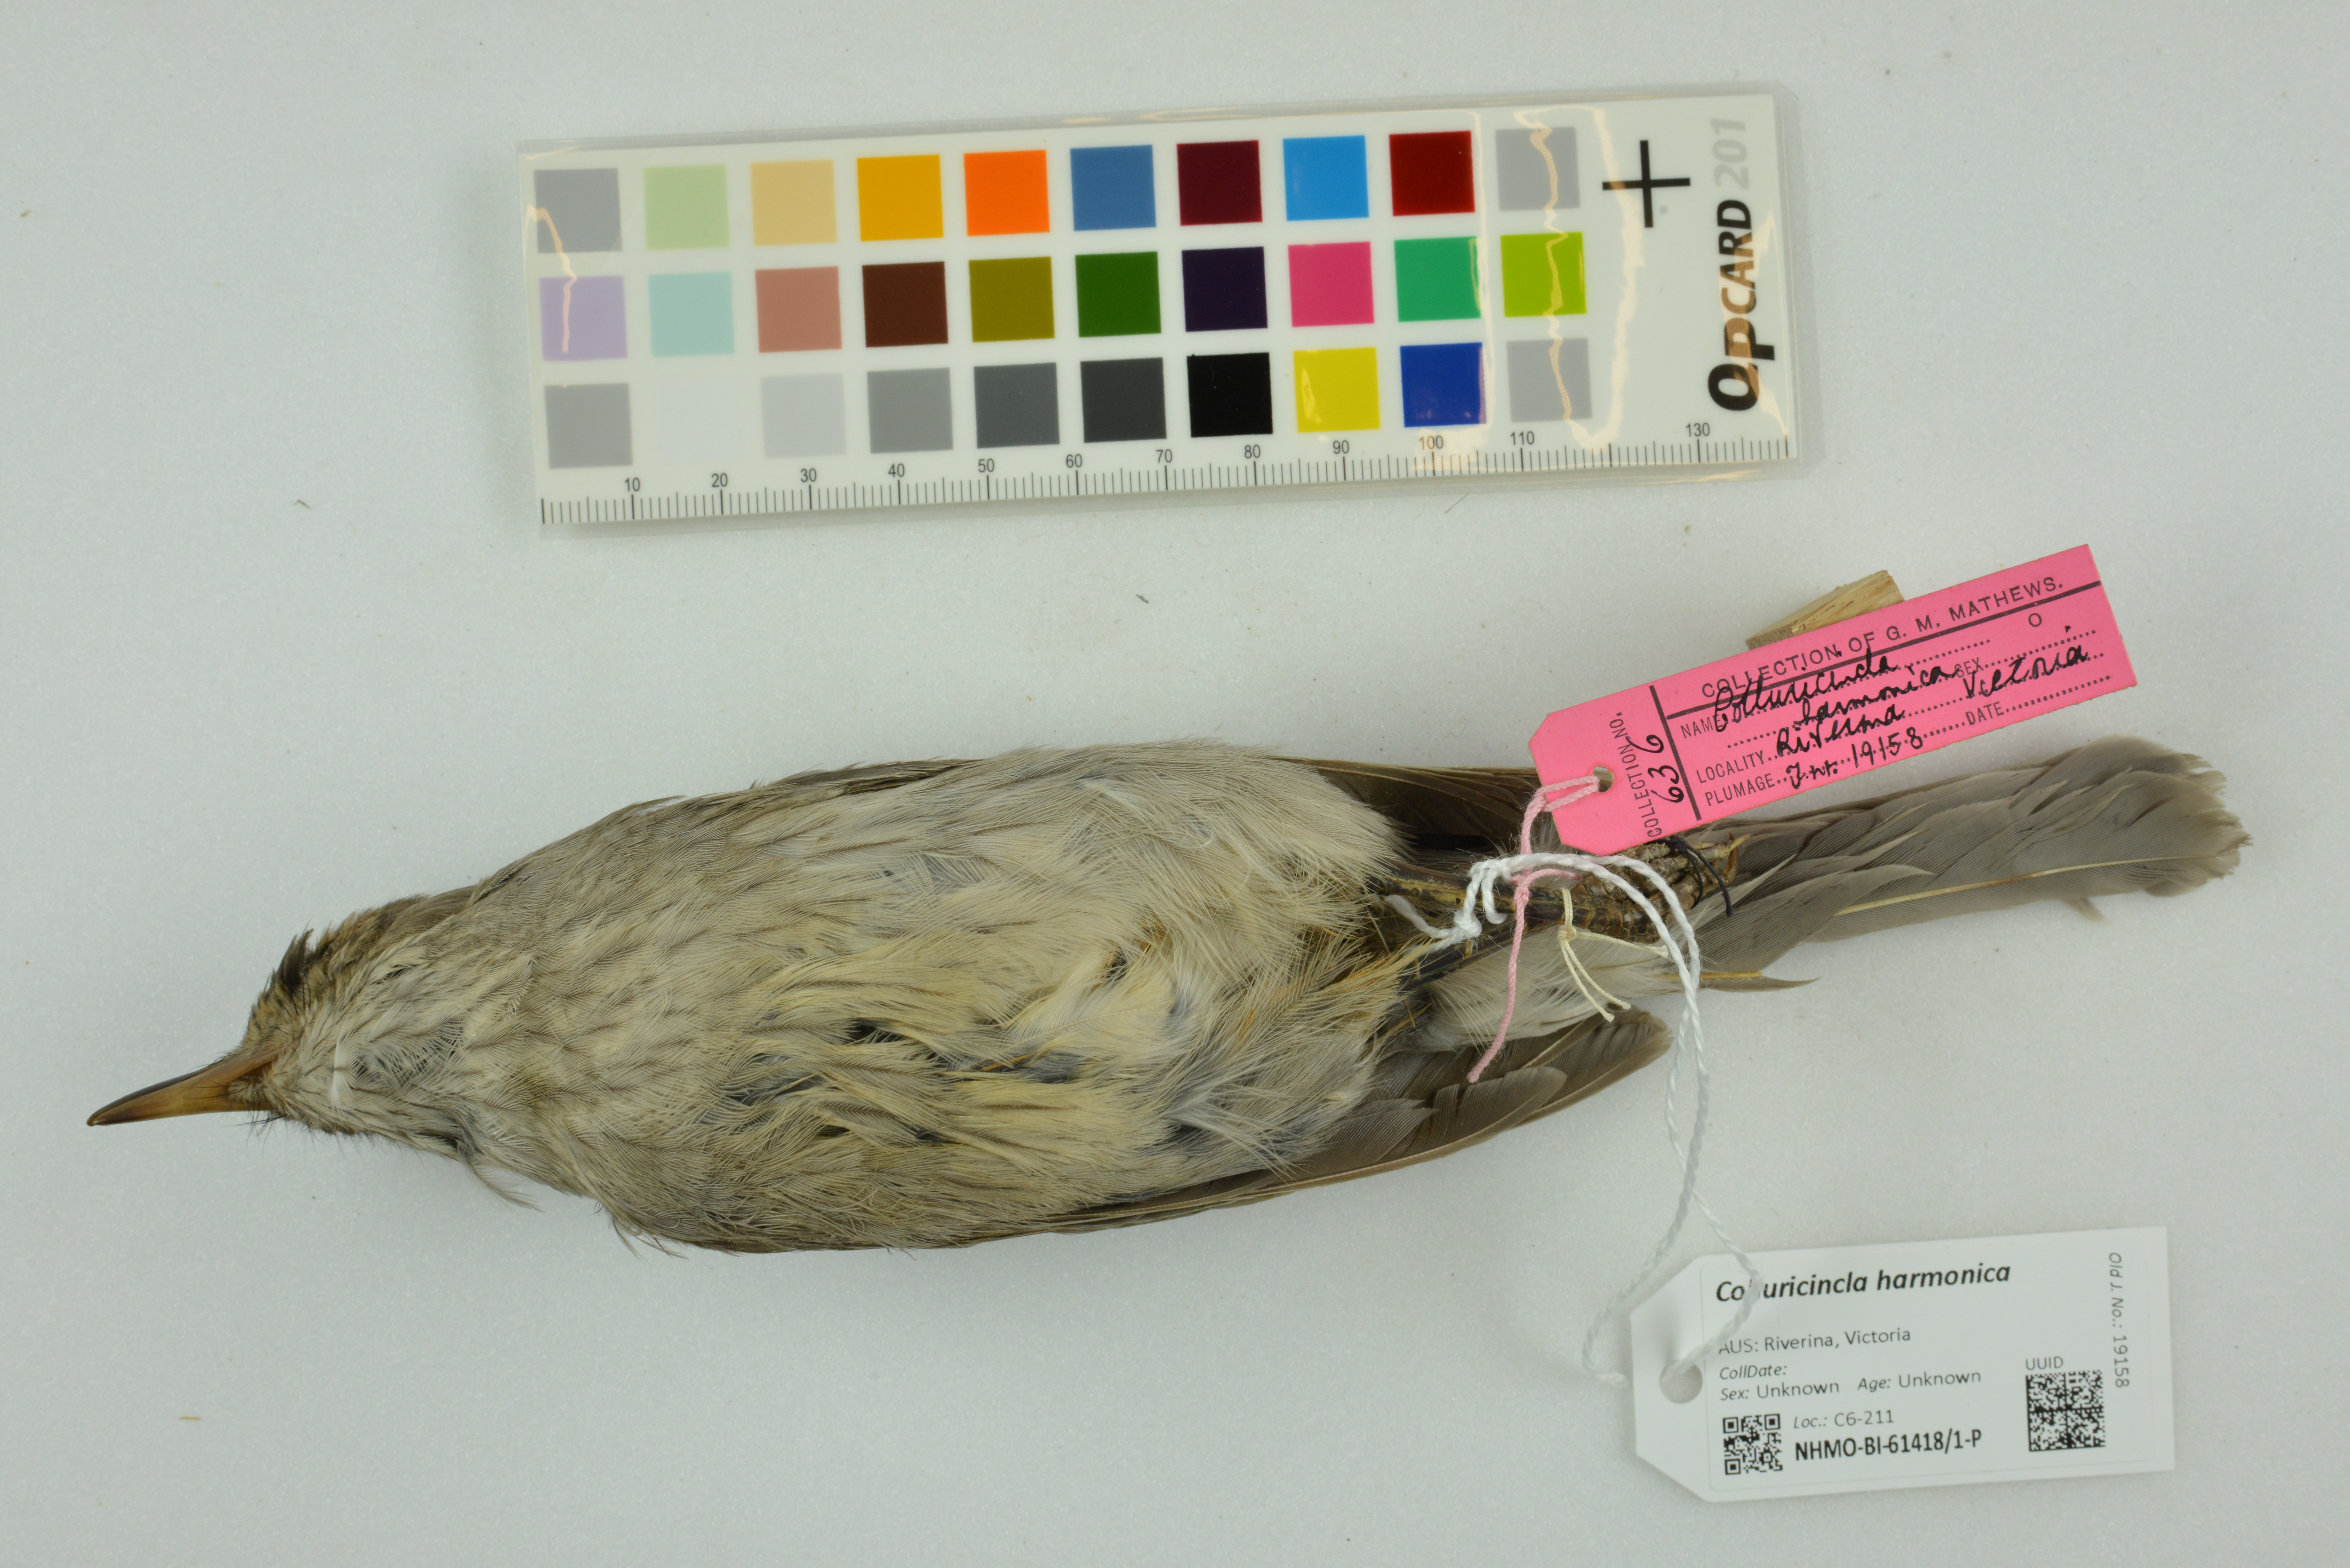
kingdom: Animalia
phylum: Chordata
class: Aves
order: Passeriformes
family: Pachycephalidae
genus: Colluricincla
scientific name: Colluricincla harmonica
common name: Grey shrikethrush
